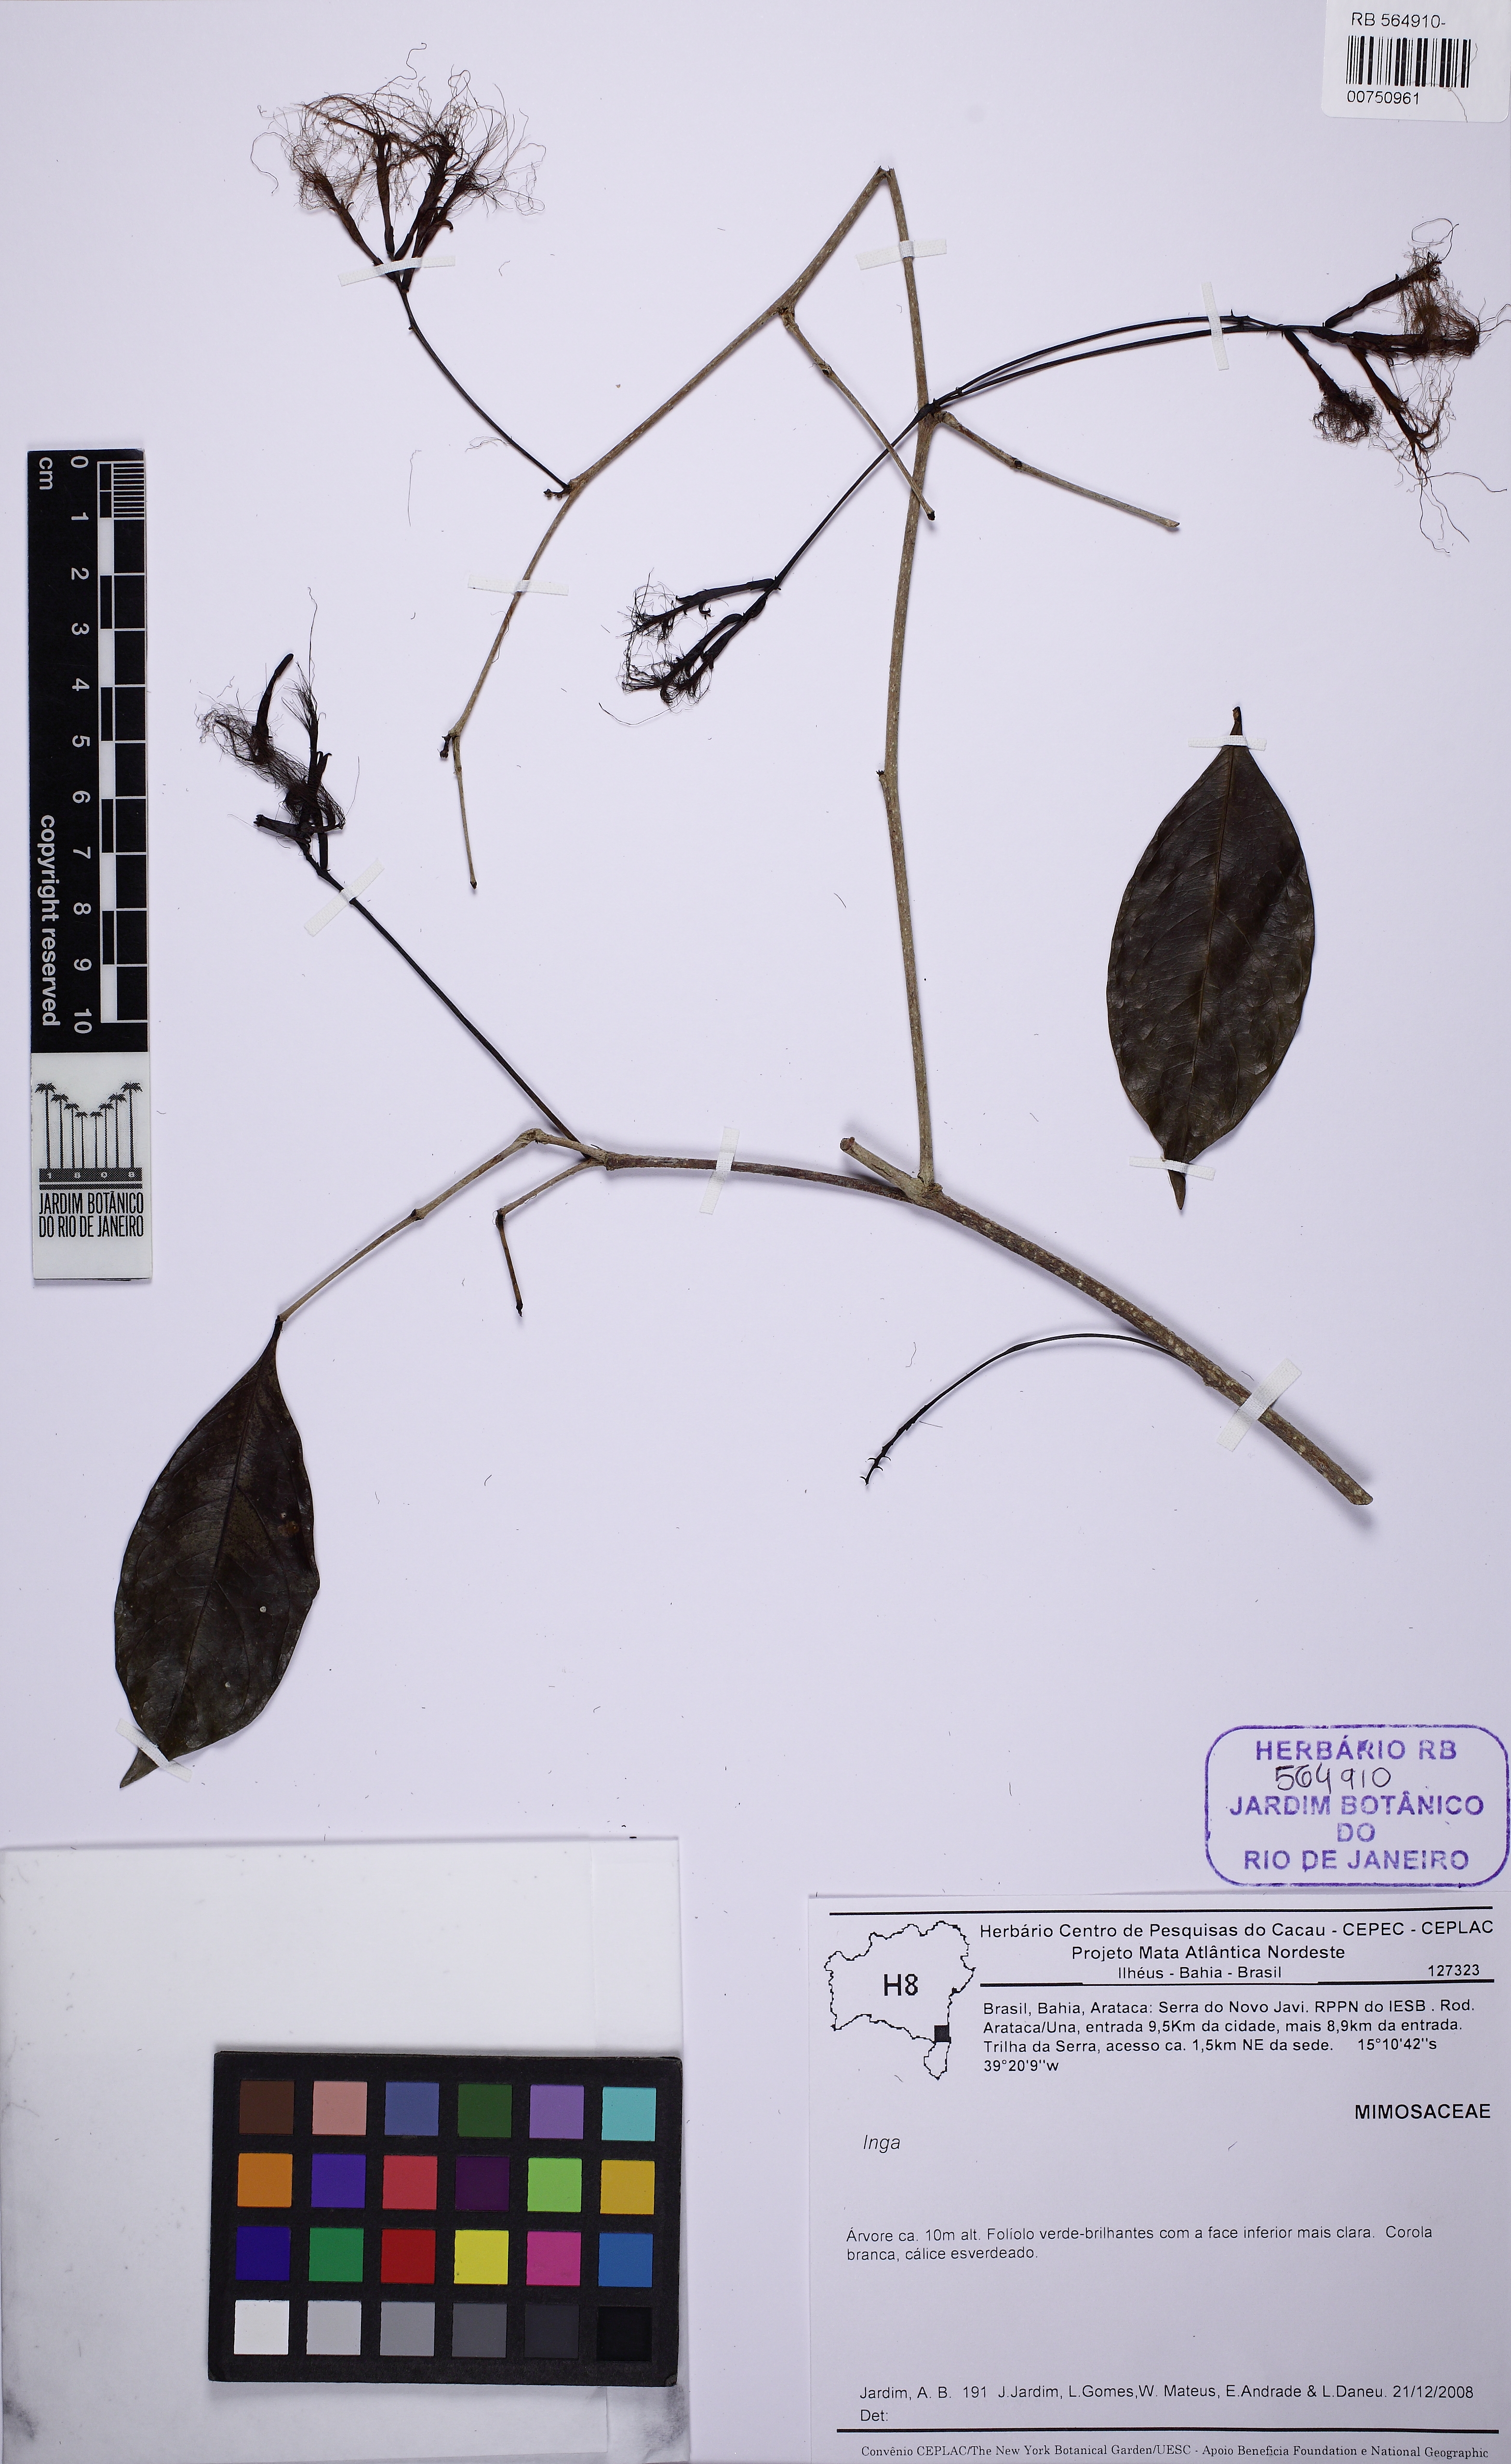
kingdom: Plantae
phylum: Tracheophyta
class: Magnoliopsida
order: Fabales
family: Fabaceae
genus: Inga
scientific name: Inga capitata
